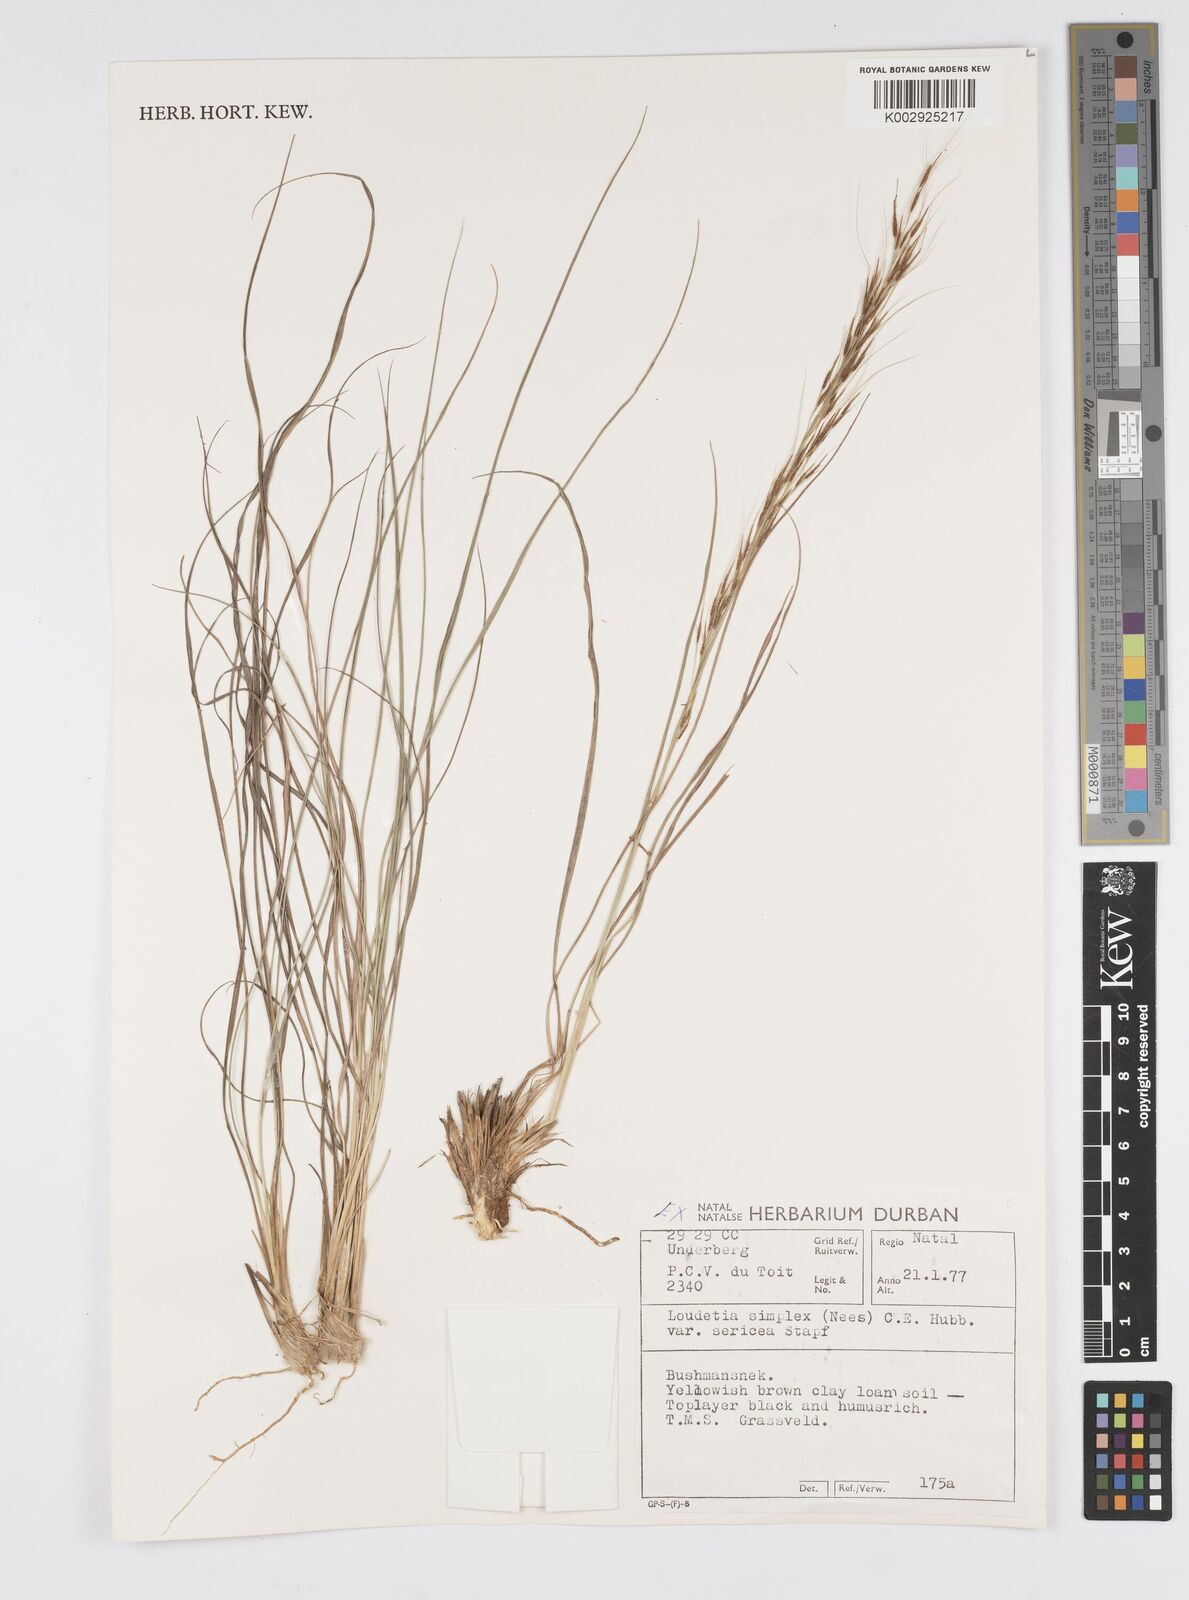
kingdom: Plantae
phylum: Tracheophyta
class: Liliopsida
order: Poales
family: Poaceae
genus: Loudetia
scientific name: Loudetia simplex
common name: Common russet grass
